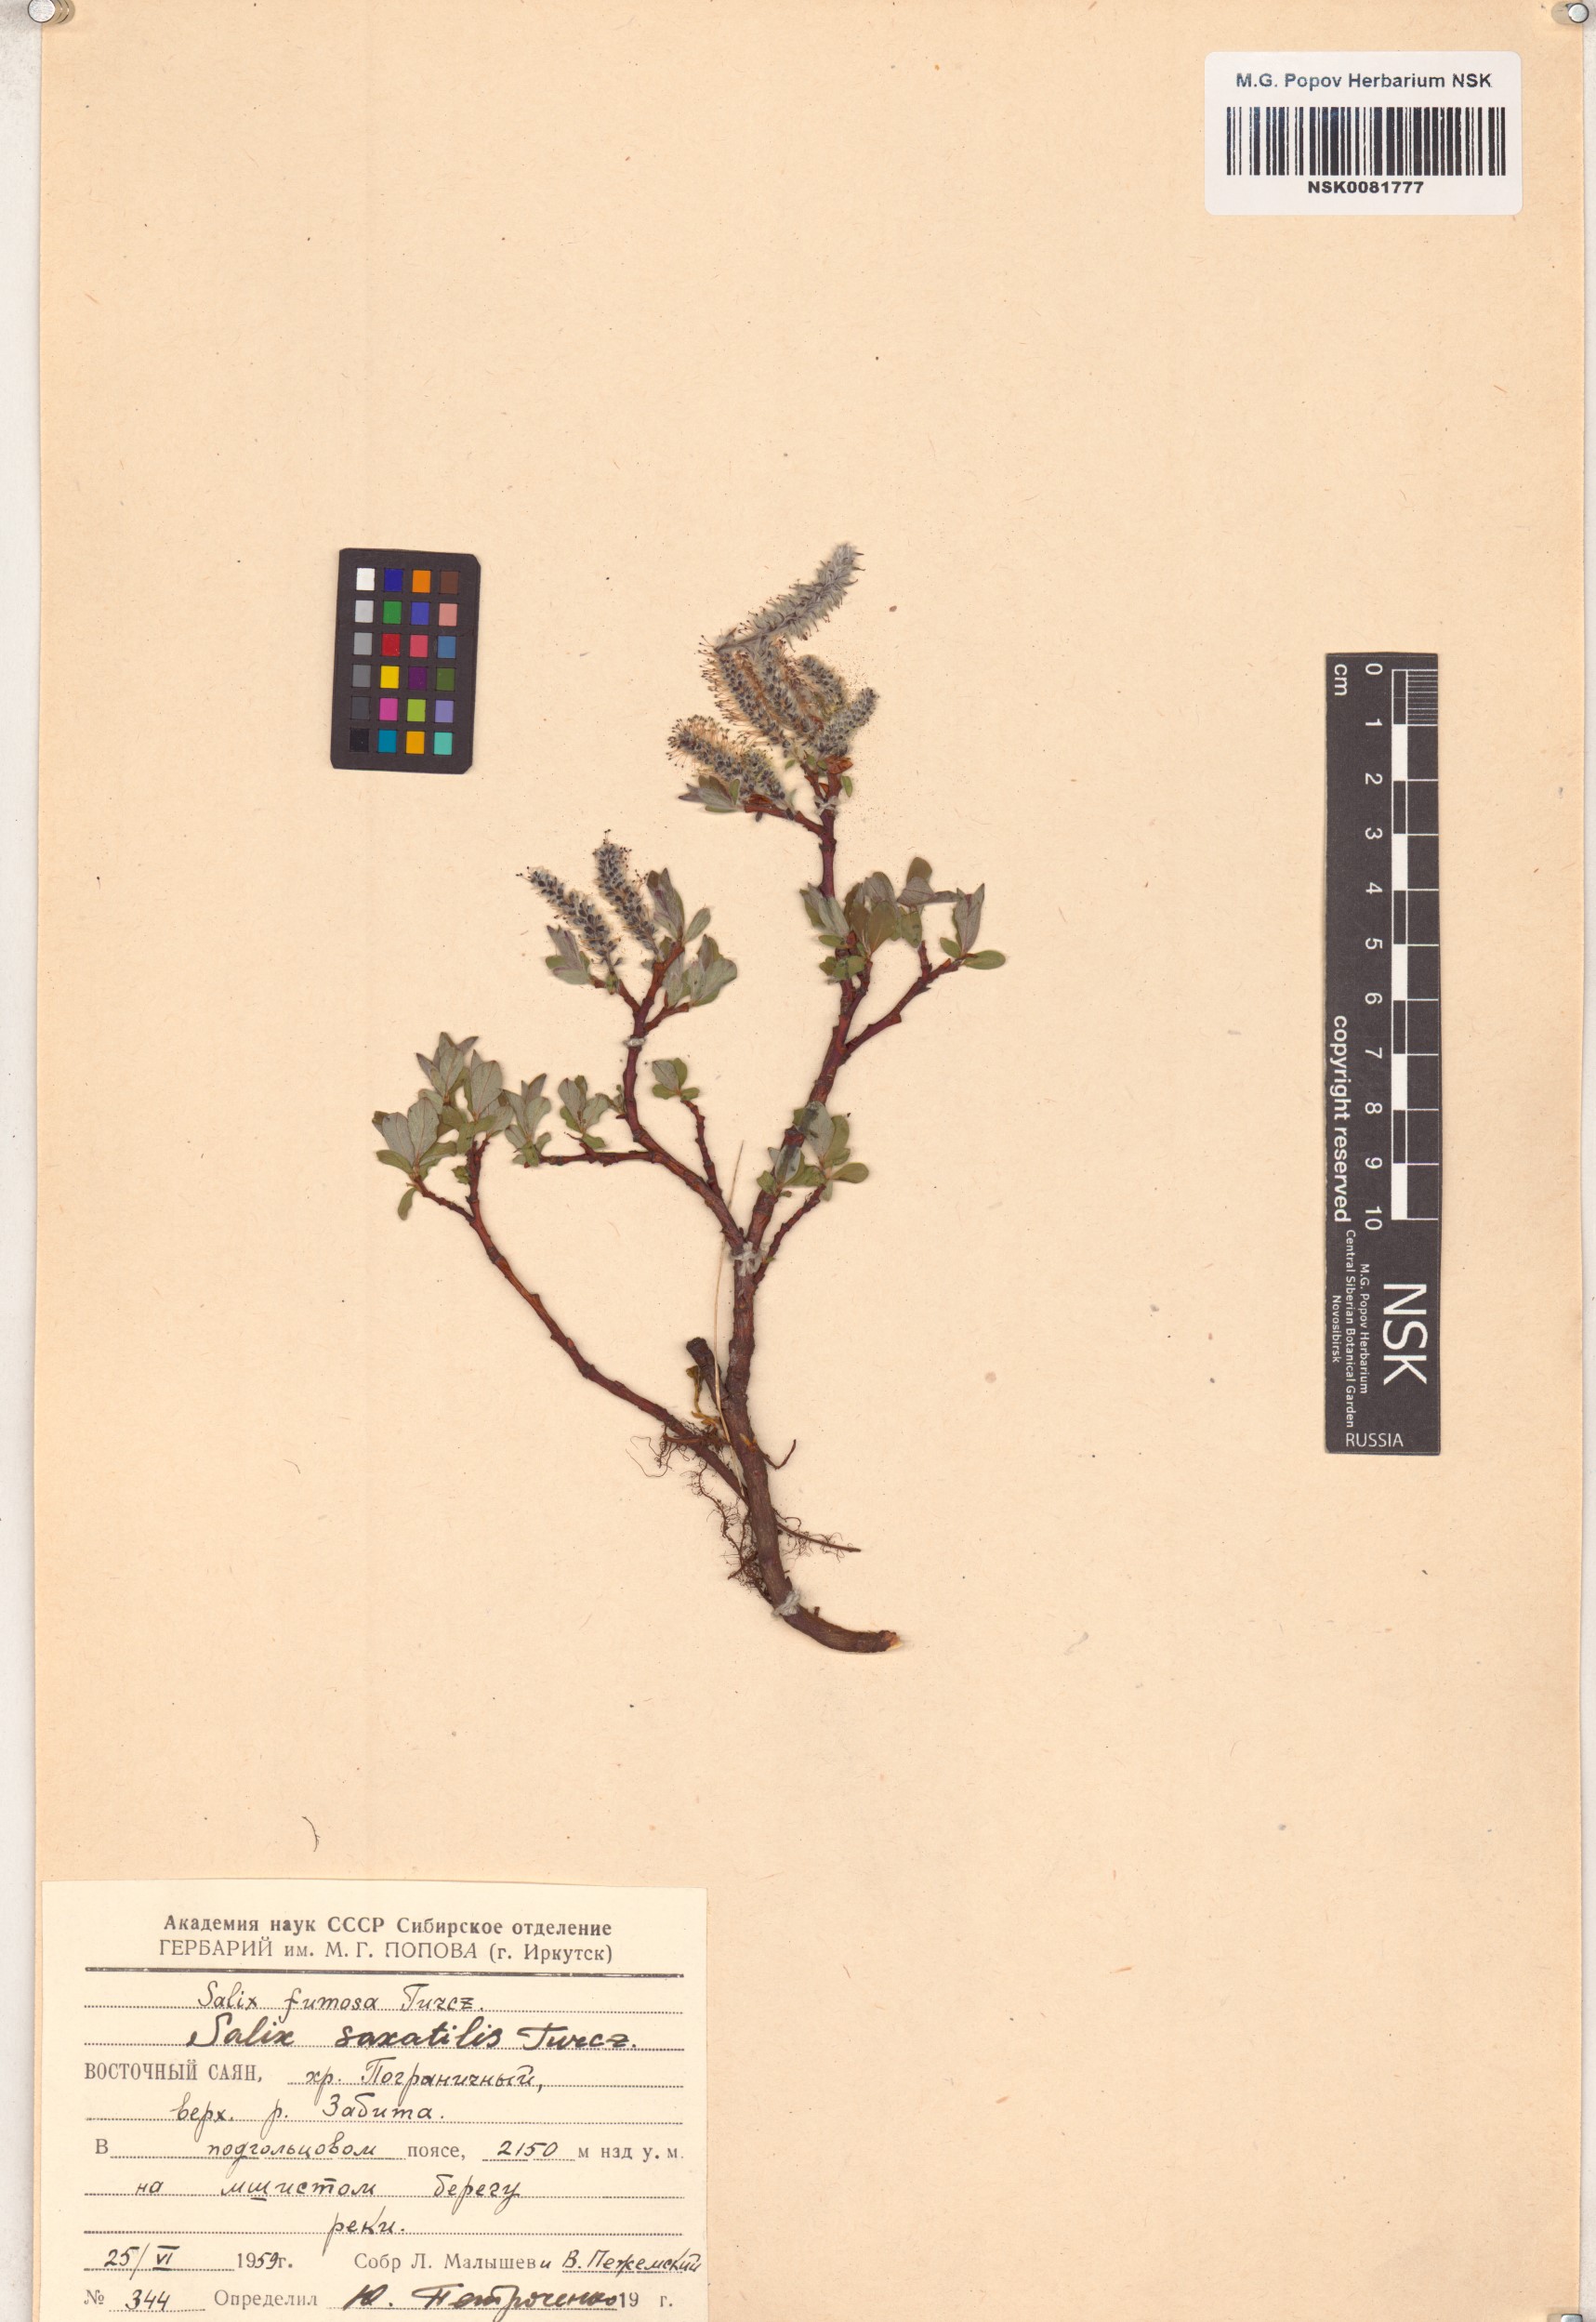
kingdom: Plantae
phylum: Tracheophyta
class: Magnoliopsida
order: Malpighiales
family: Salicaceae
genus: Salix
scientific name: Salix saxatilis
